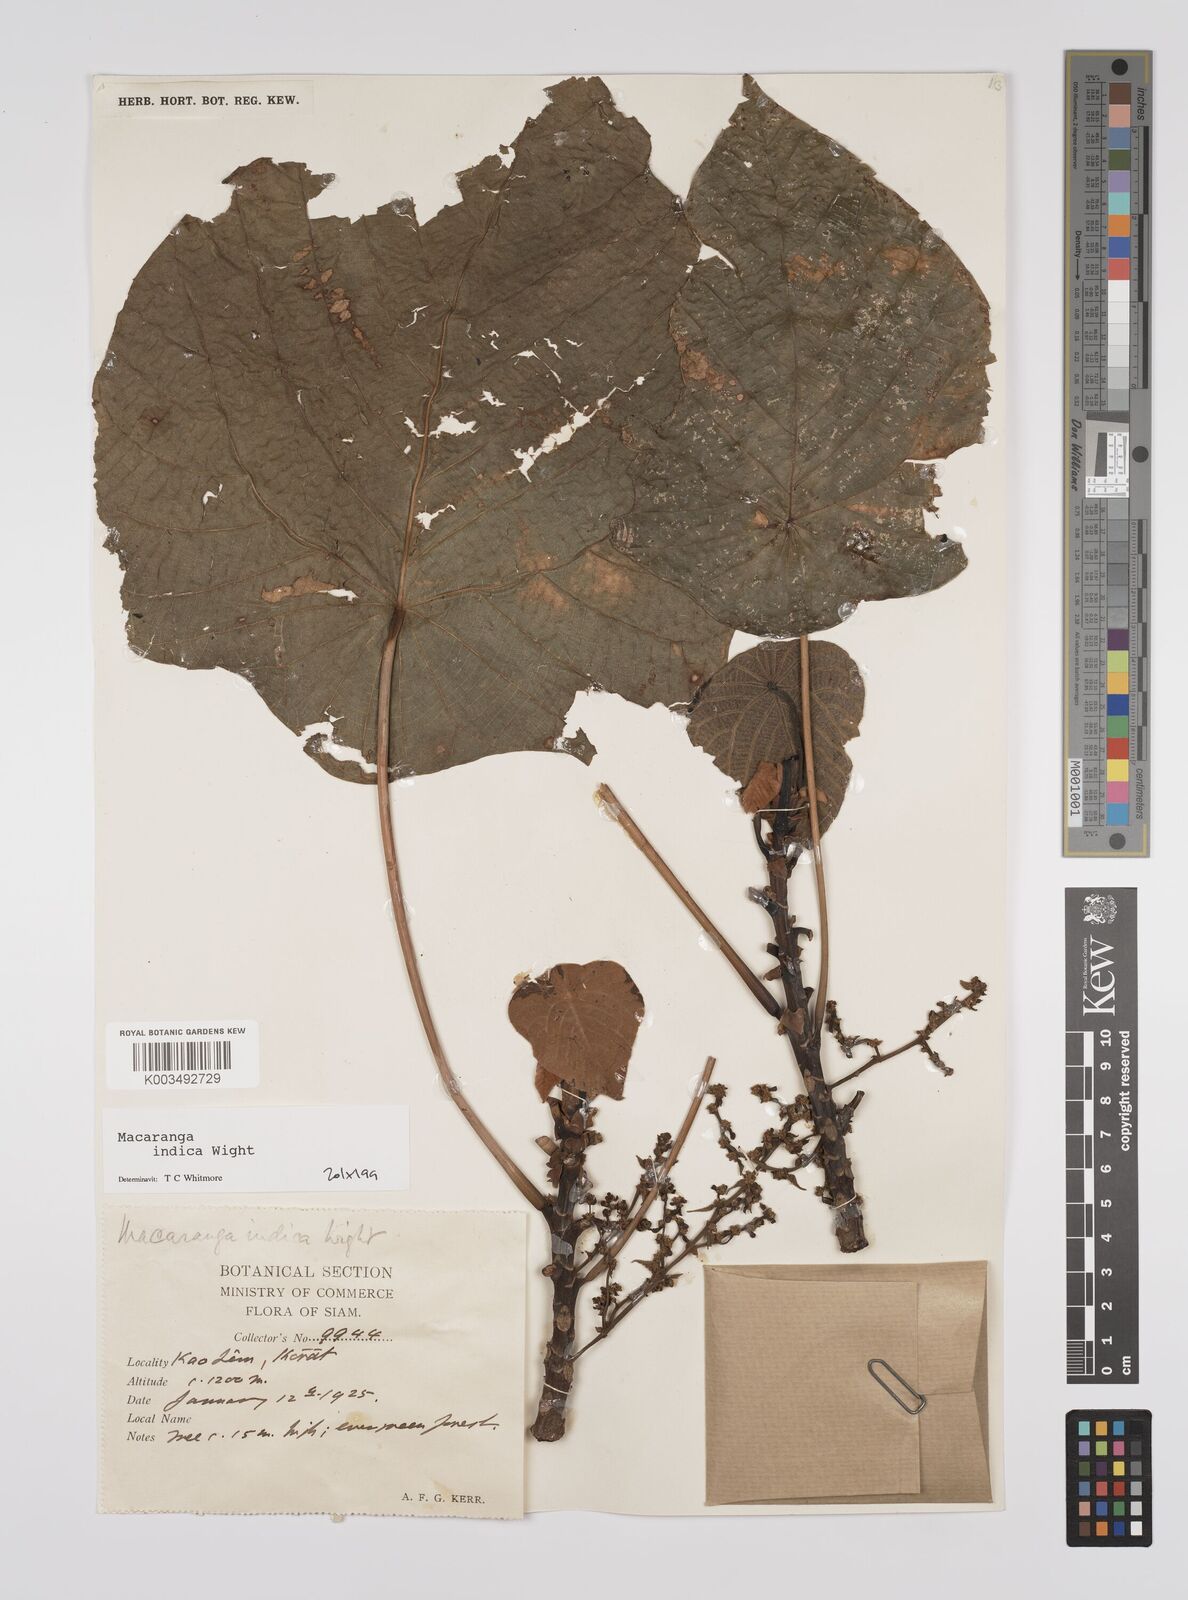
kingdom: Plantae
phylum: Tracheophyta
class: Magnoliopsida
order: Malpighiales
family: Euphorbiaceae
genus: Macaranga
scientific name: Macaranga indica
